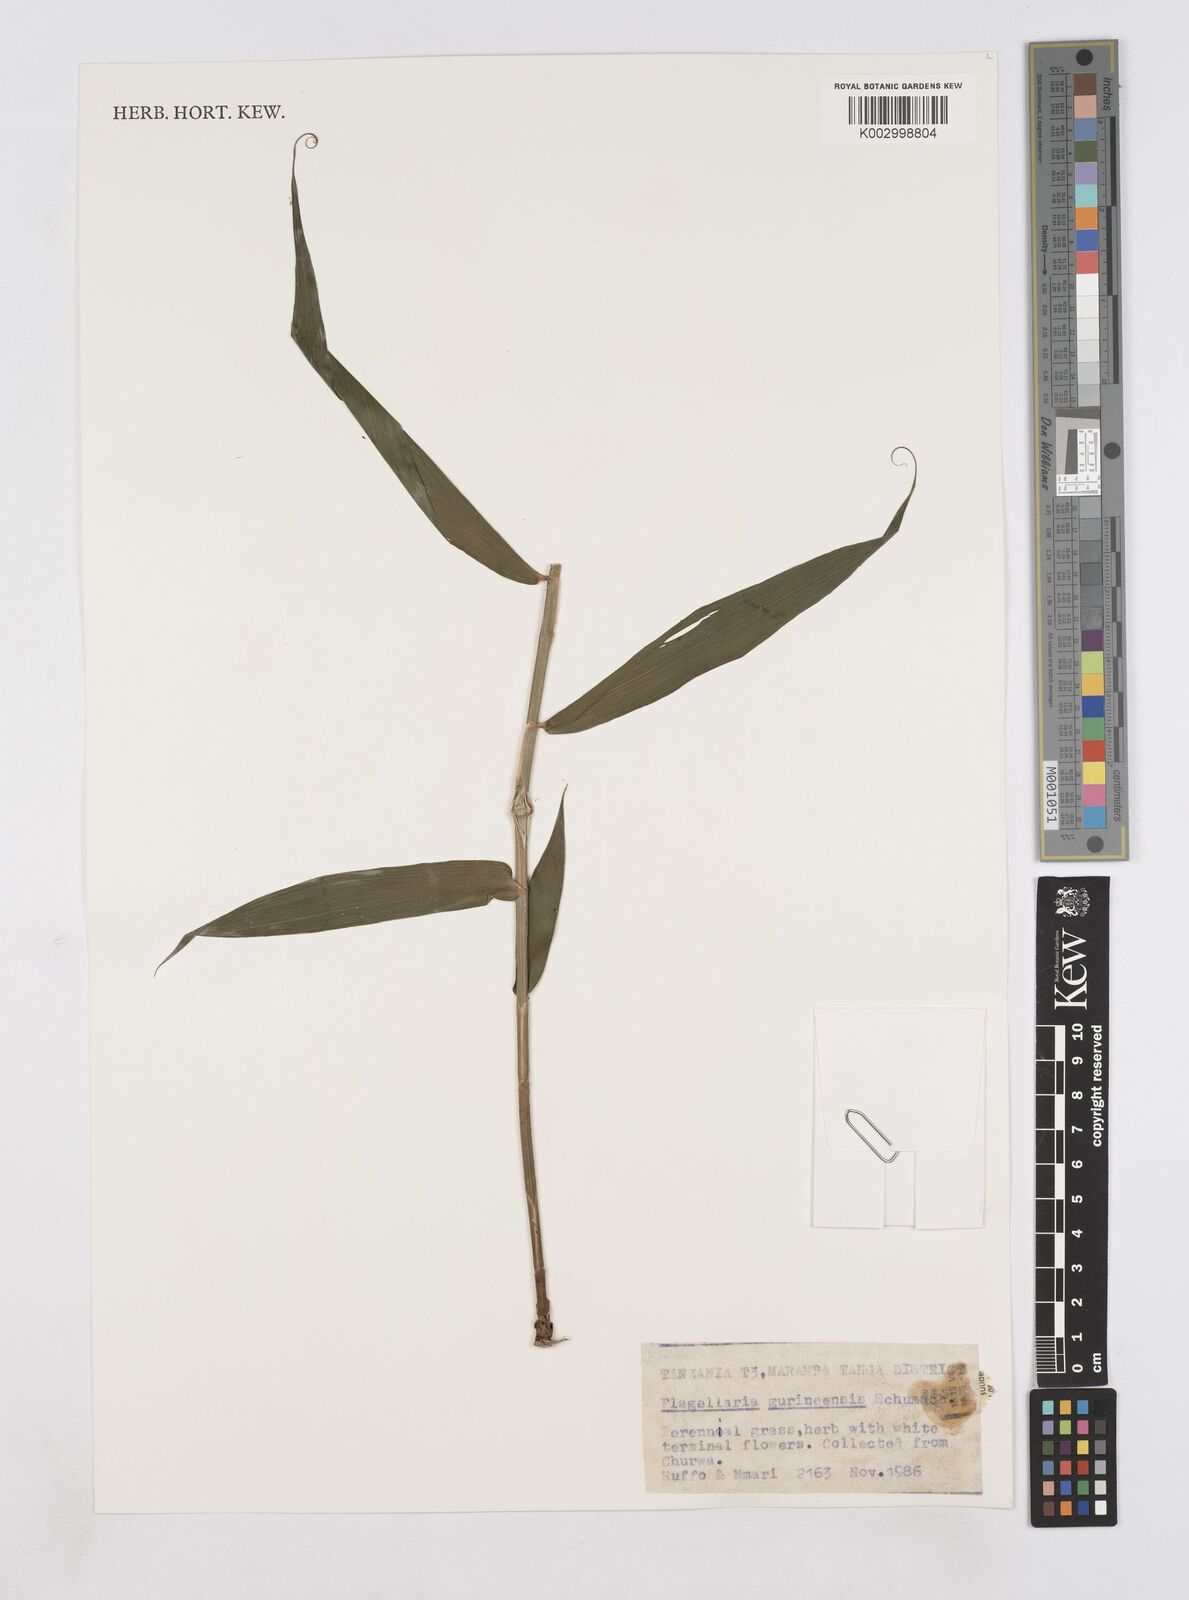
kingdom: Plantae
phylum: Tracheophyta
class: Liliopsida
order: Poales
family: Flagellariaceae
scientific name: Flagellariaceae
